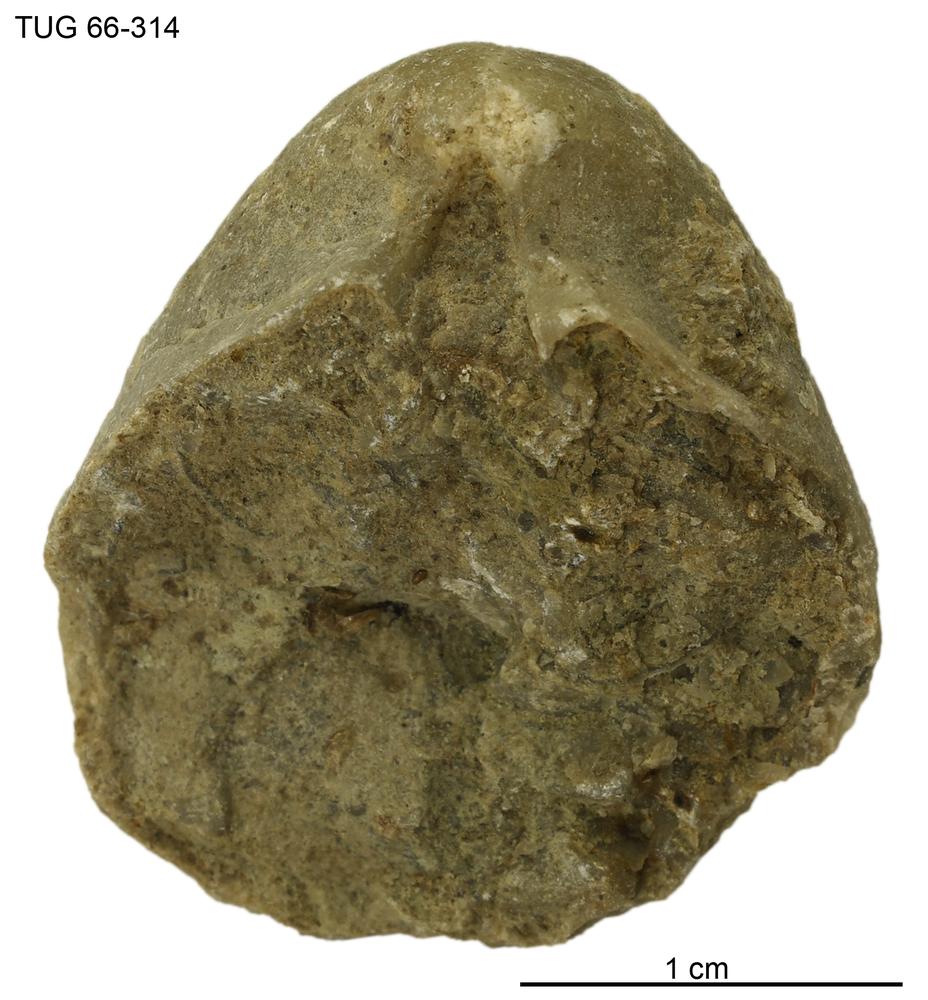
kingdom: Animalia
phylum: Brachiopoda
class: Rhynchonellata
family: Virgianidae
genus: Borealis
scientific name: Borealis
